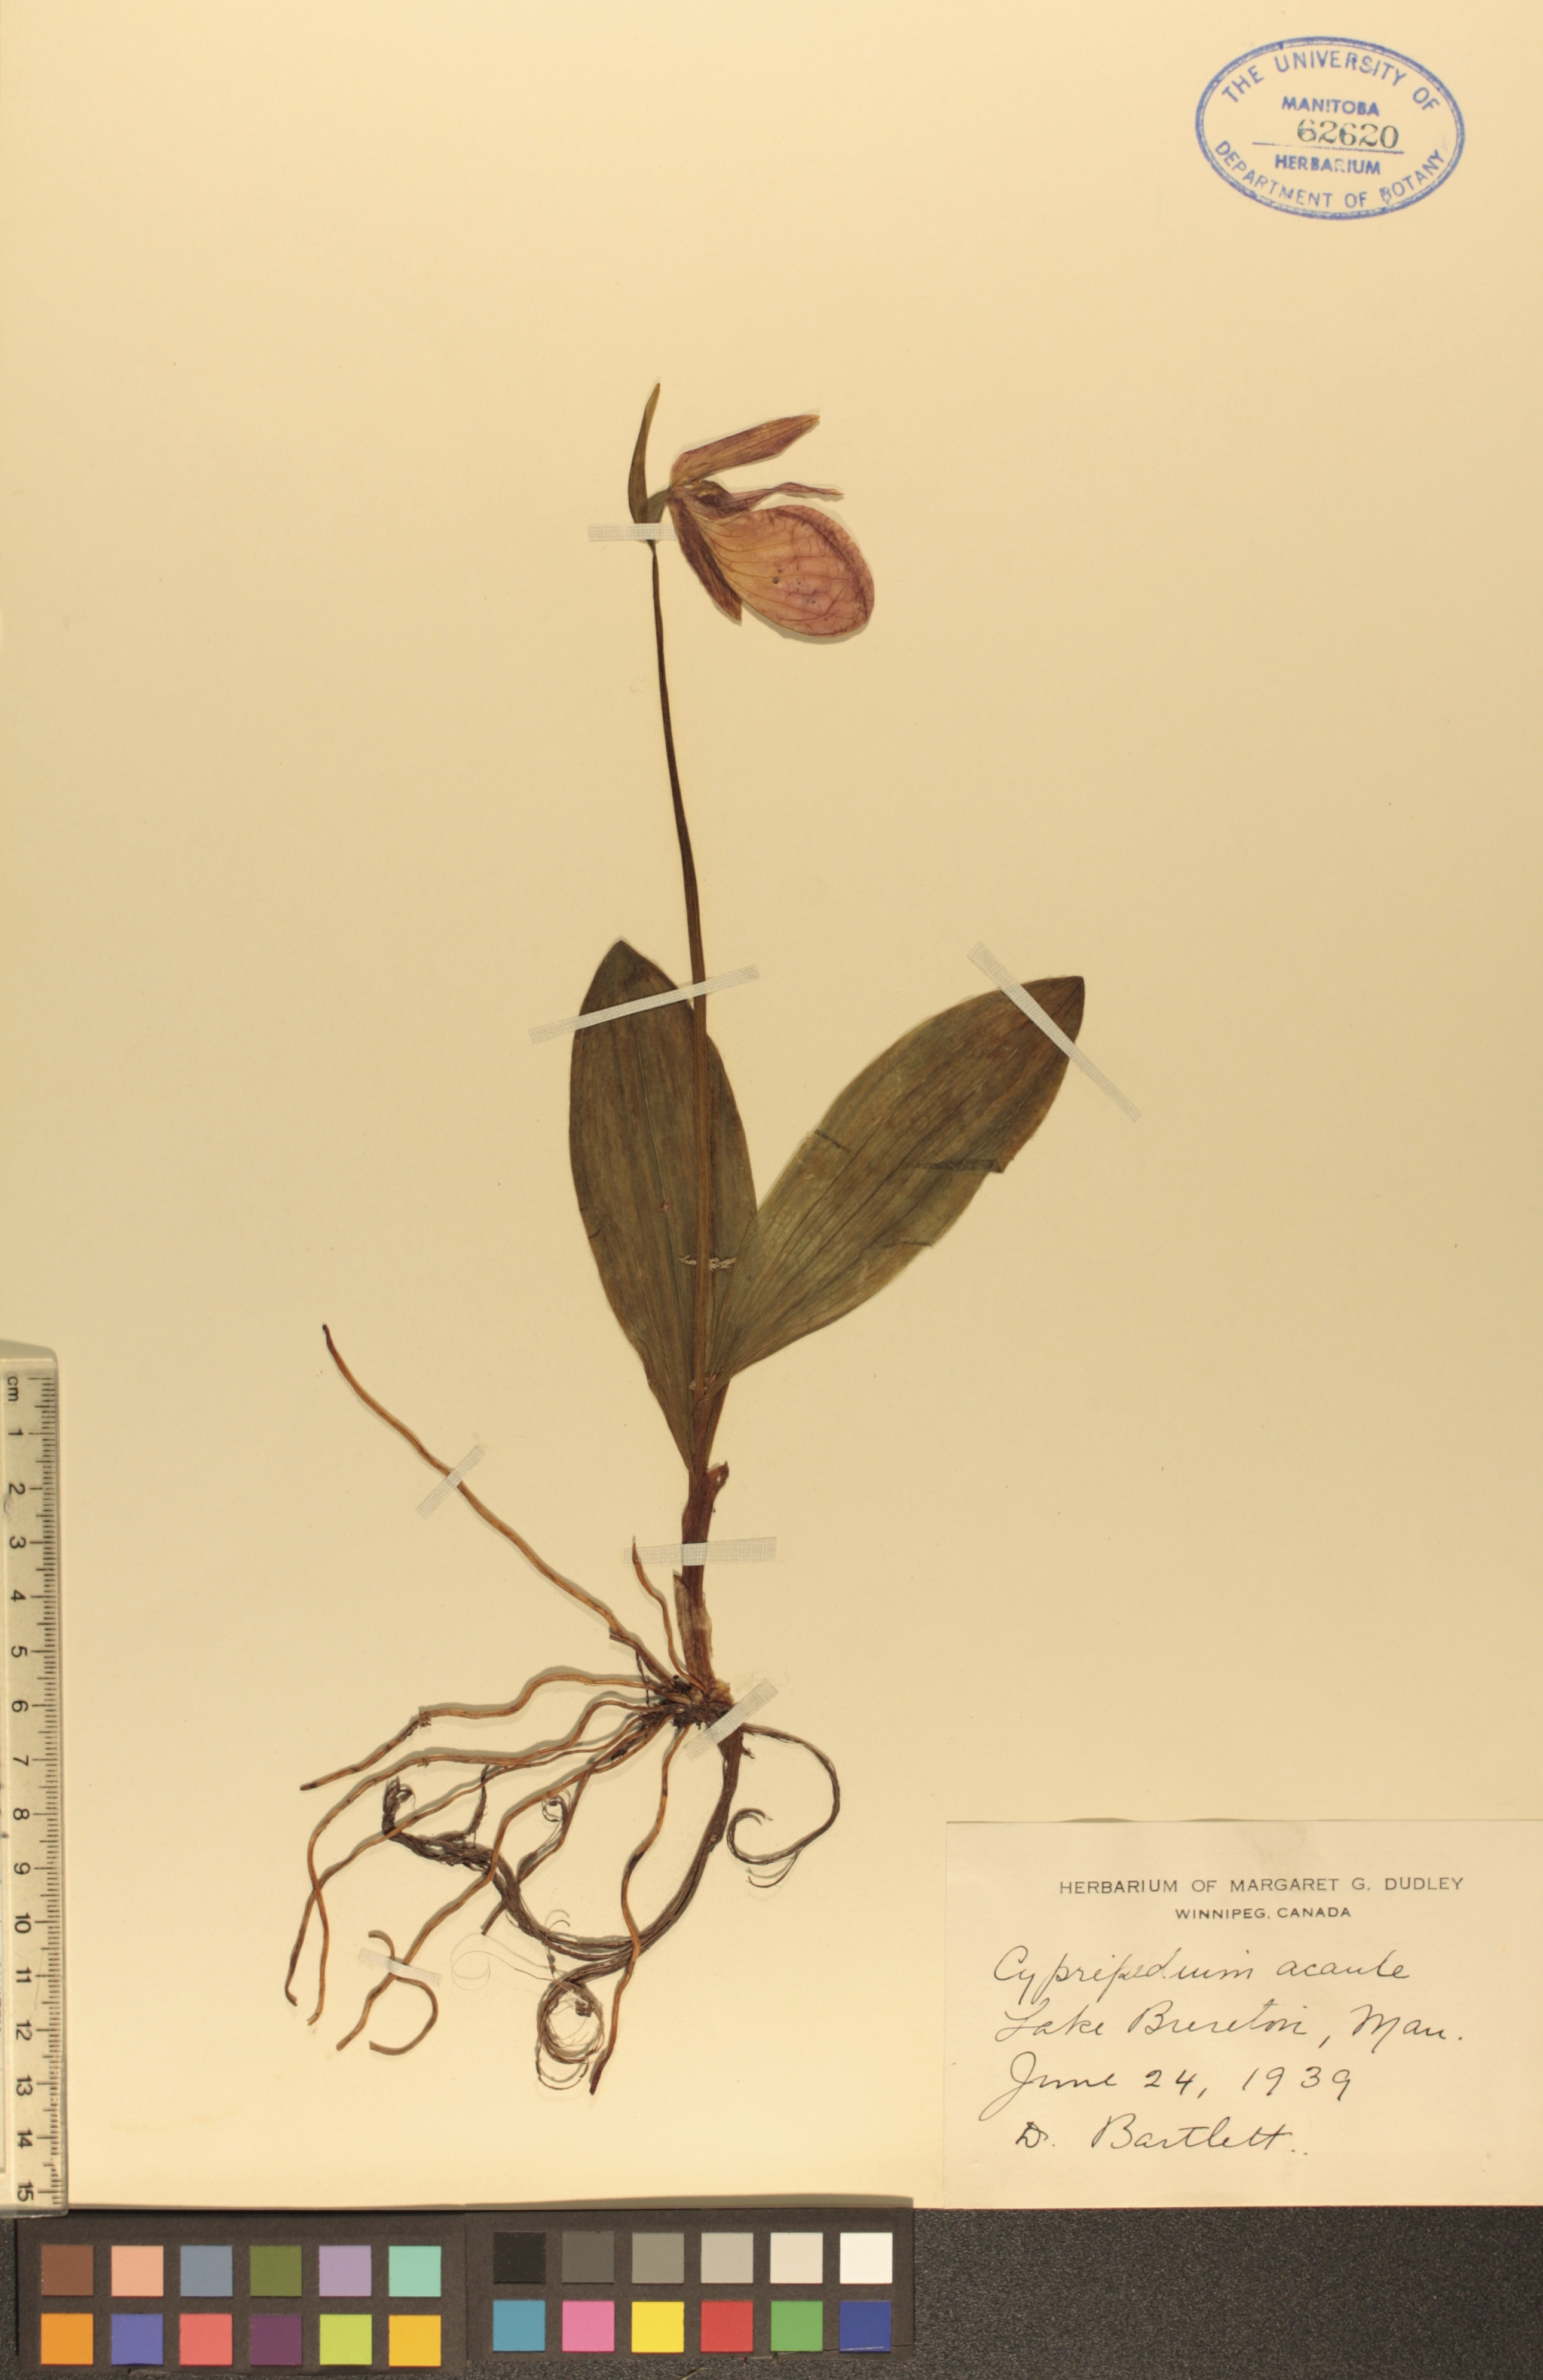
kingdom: Plantae
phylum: Tracheophyta
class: Liliopsida
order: Asparagales
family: Orchidaceae
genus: Cypripedium
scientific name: Cypripedium acaule
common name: Pink lady's-slipper
